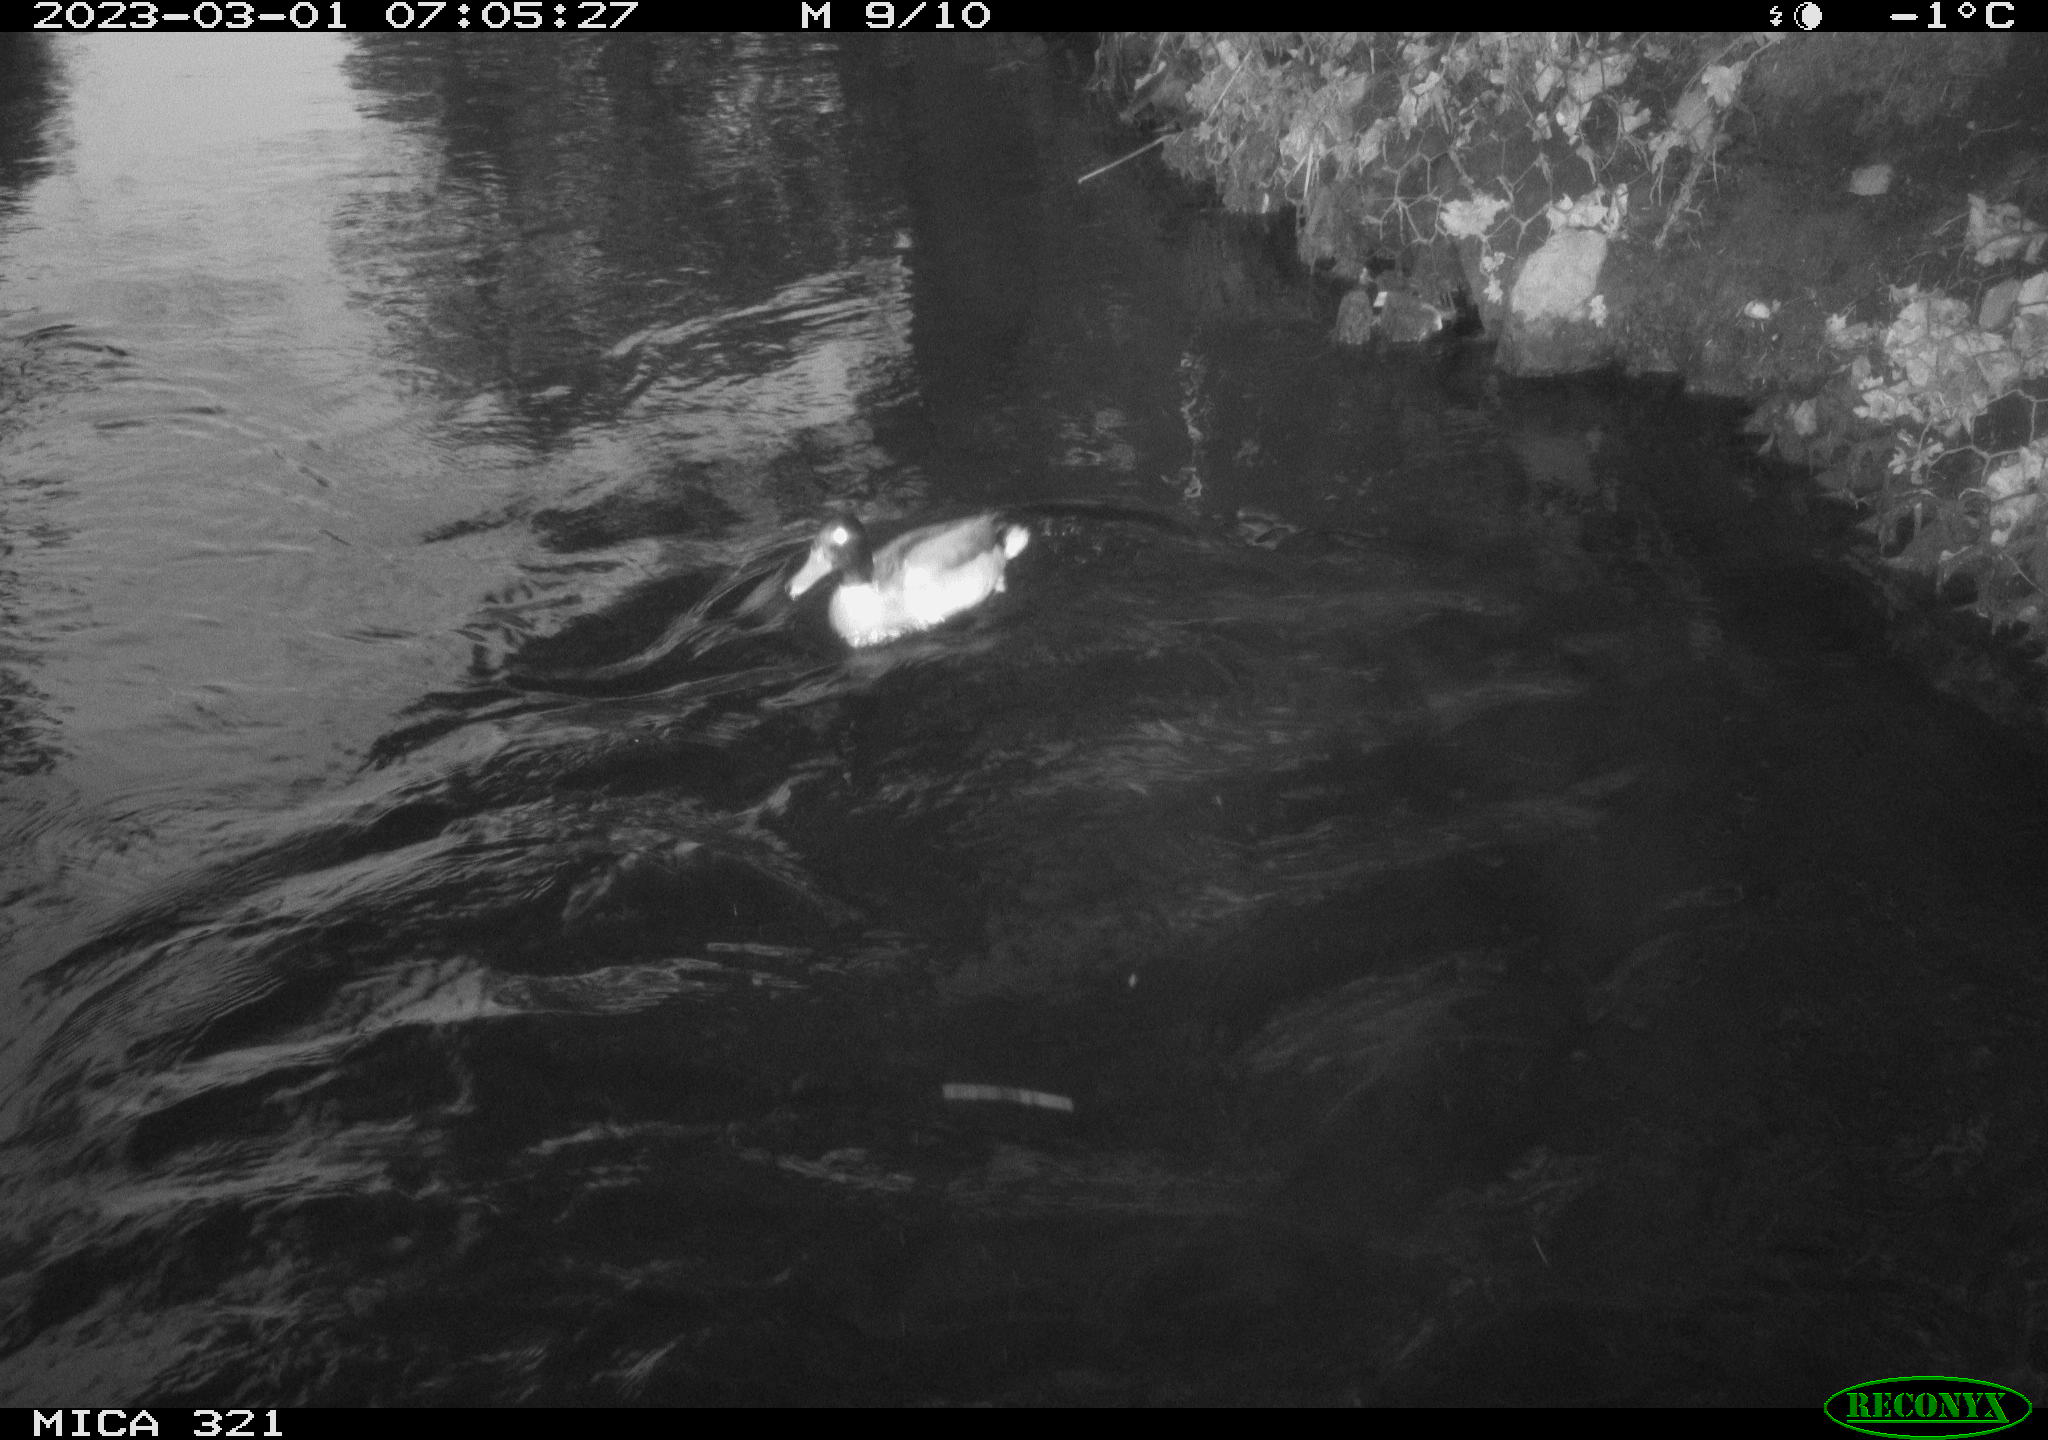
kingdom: Animalia
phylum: Chordata
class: Aves
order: Anseriformes
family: Anatidae
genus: Anas
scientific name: Anas
